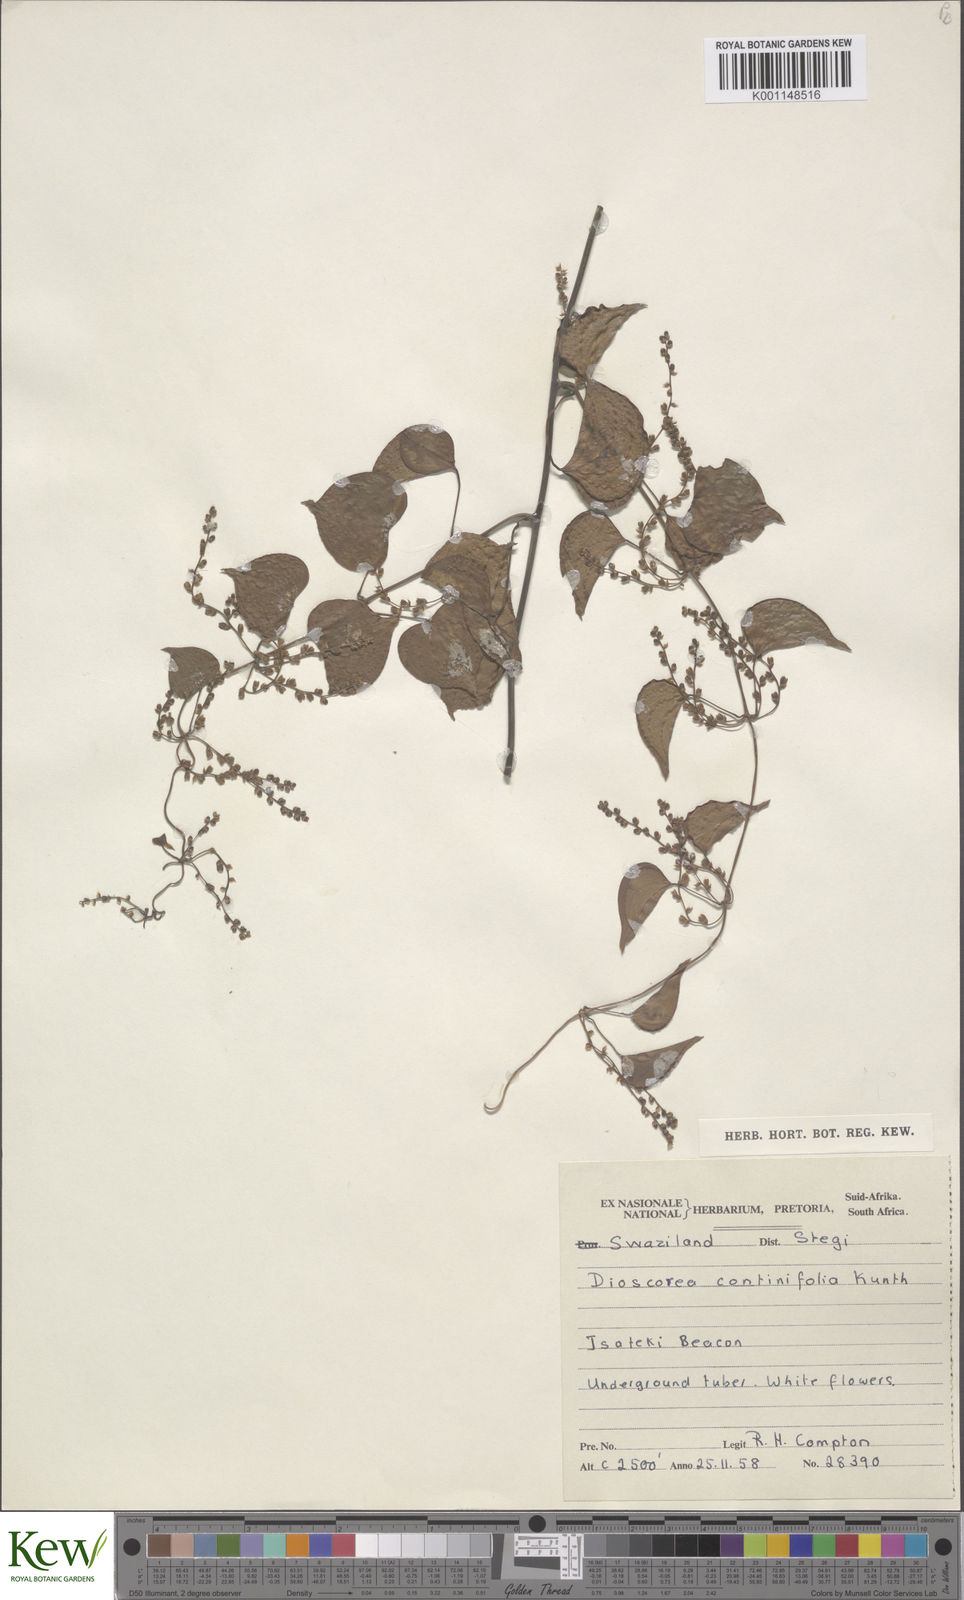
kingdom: Plantae
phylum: Tracheophyta
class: Liliopsida
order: Dioscoreales
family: Dioscoreaceae
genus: Dioscorea
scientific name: Dioscorea cotinifolia
